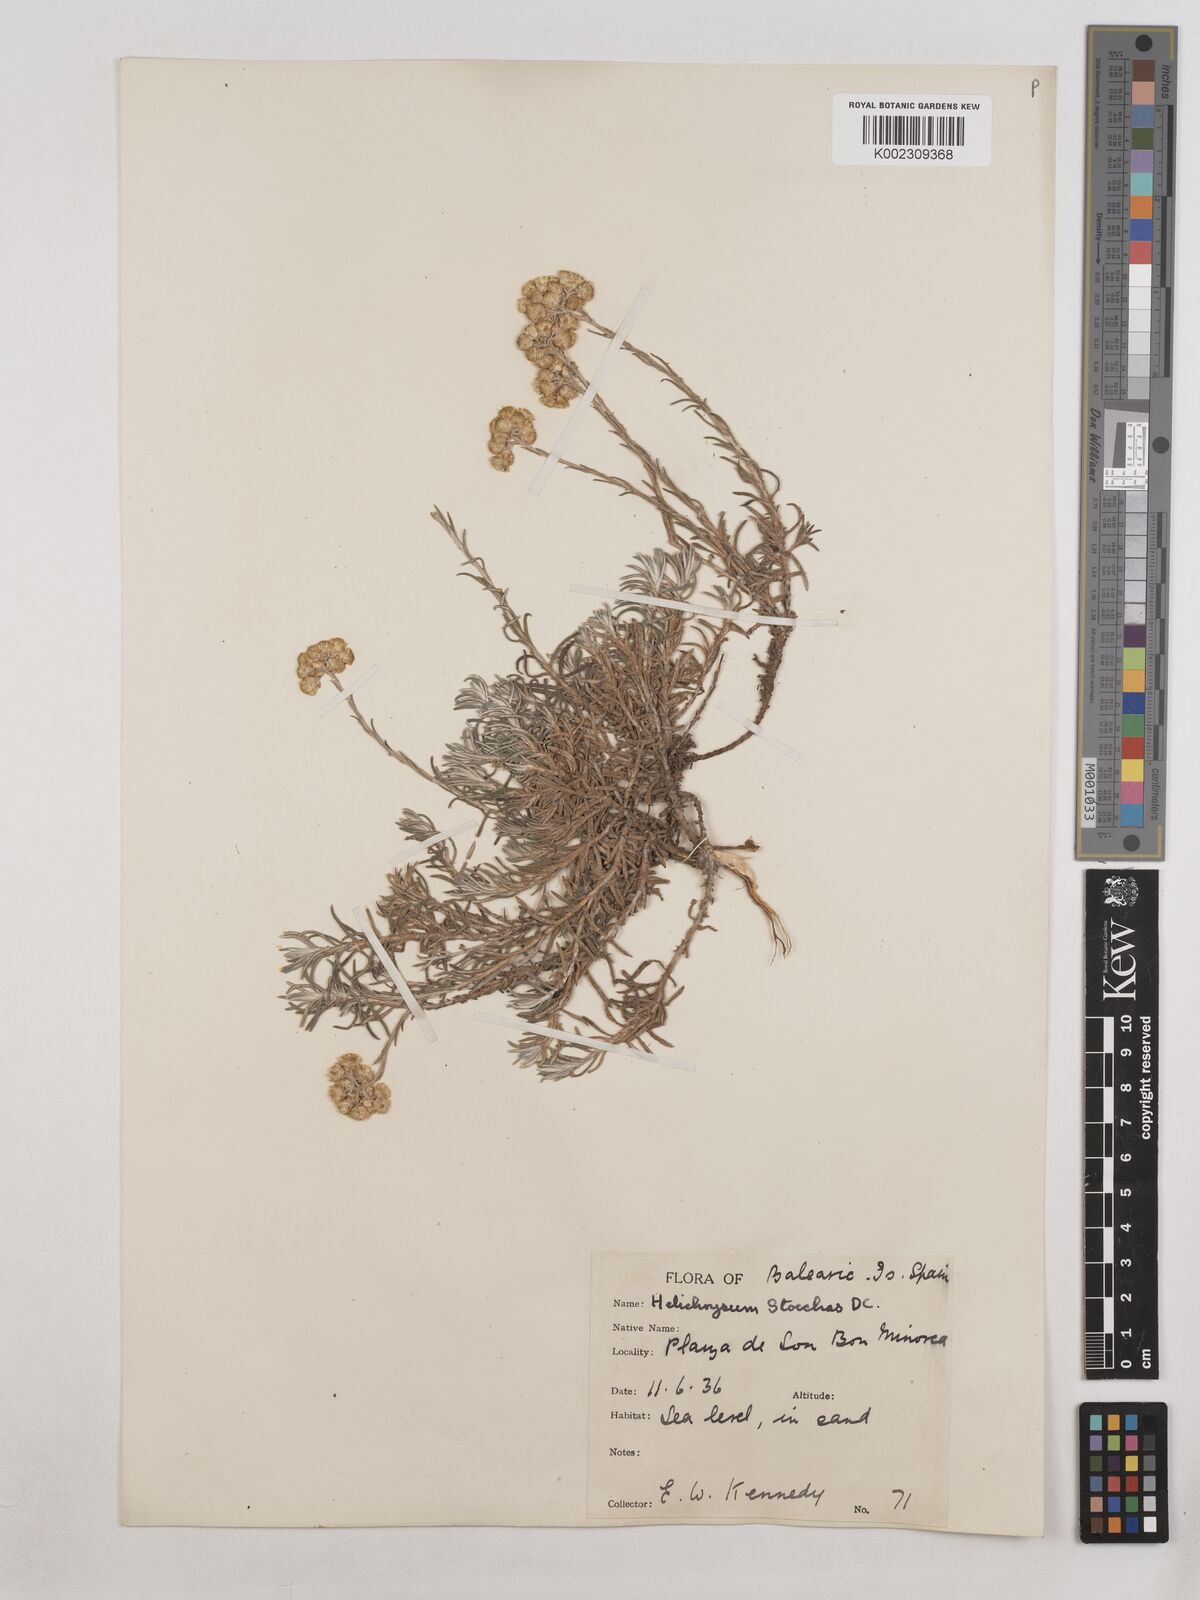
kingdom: Plantae
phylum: Tracheophyta
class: Magnoliopsida
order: Asterales
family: Asteraceae
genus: Helichrysum
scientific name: Helichrysum
